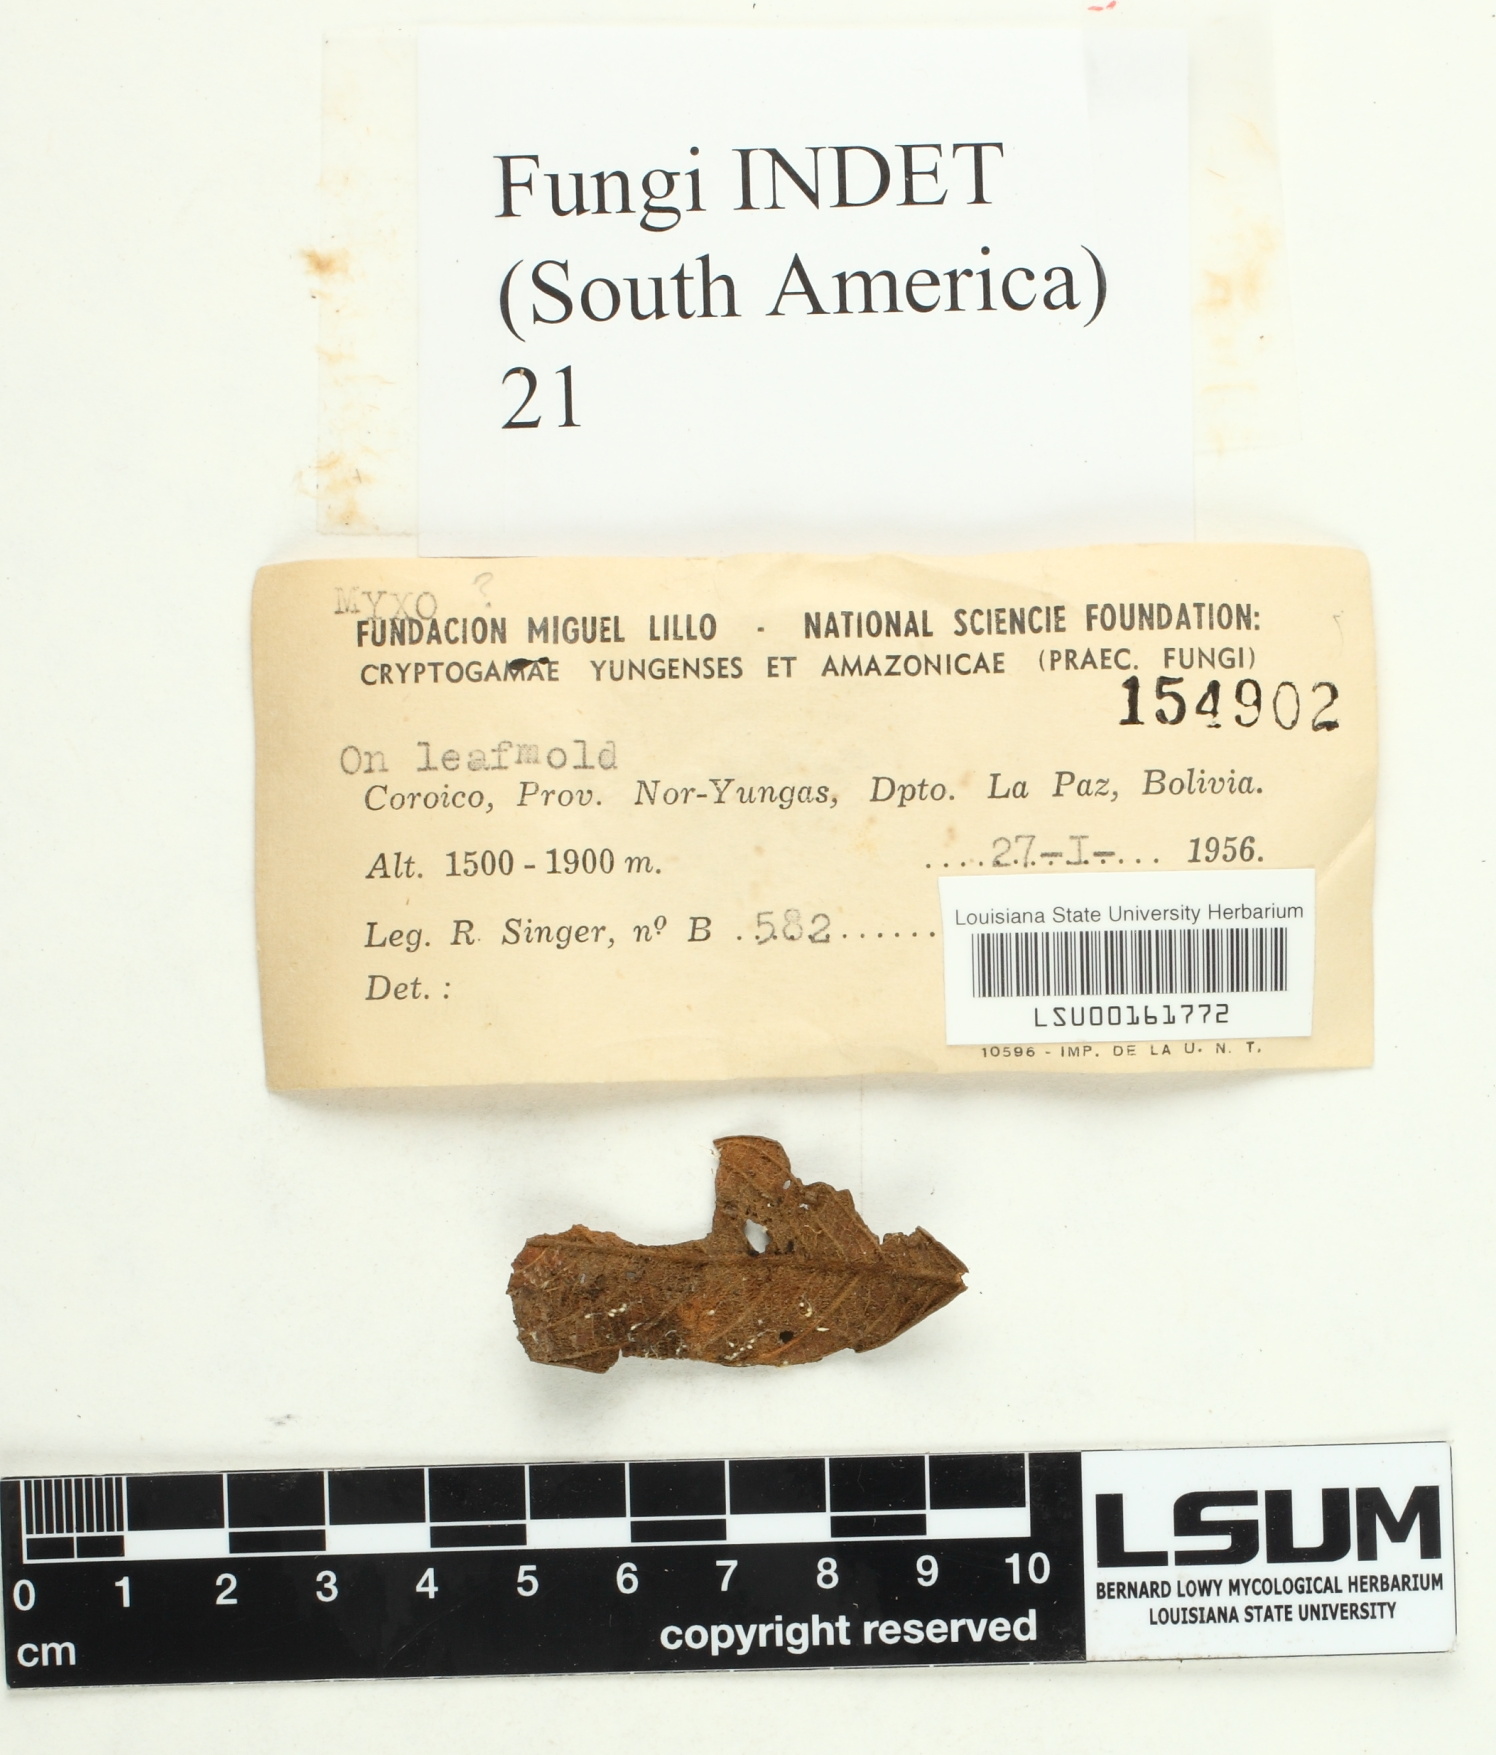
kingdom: Fungi
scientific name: Fungi
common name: Fungi
